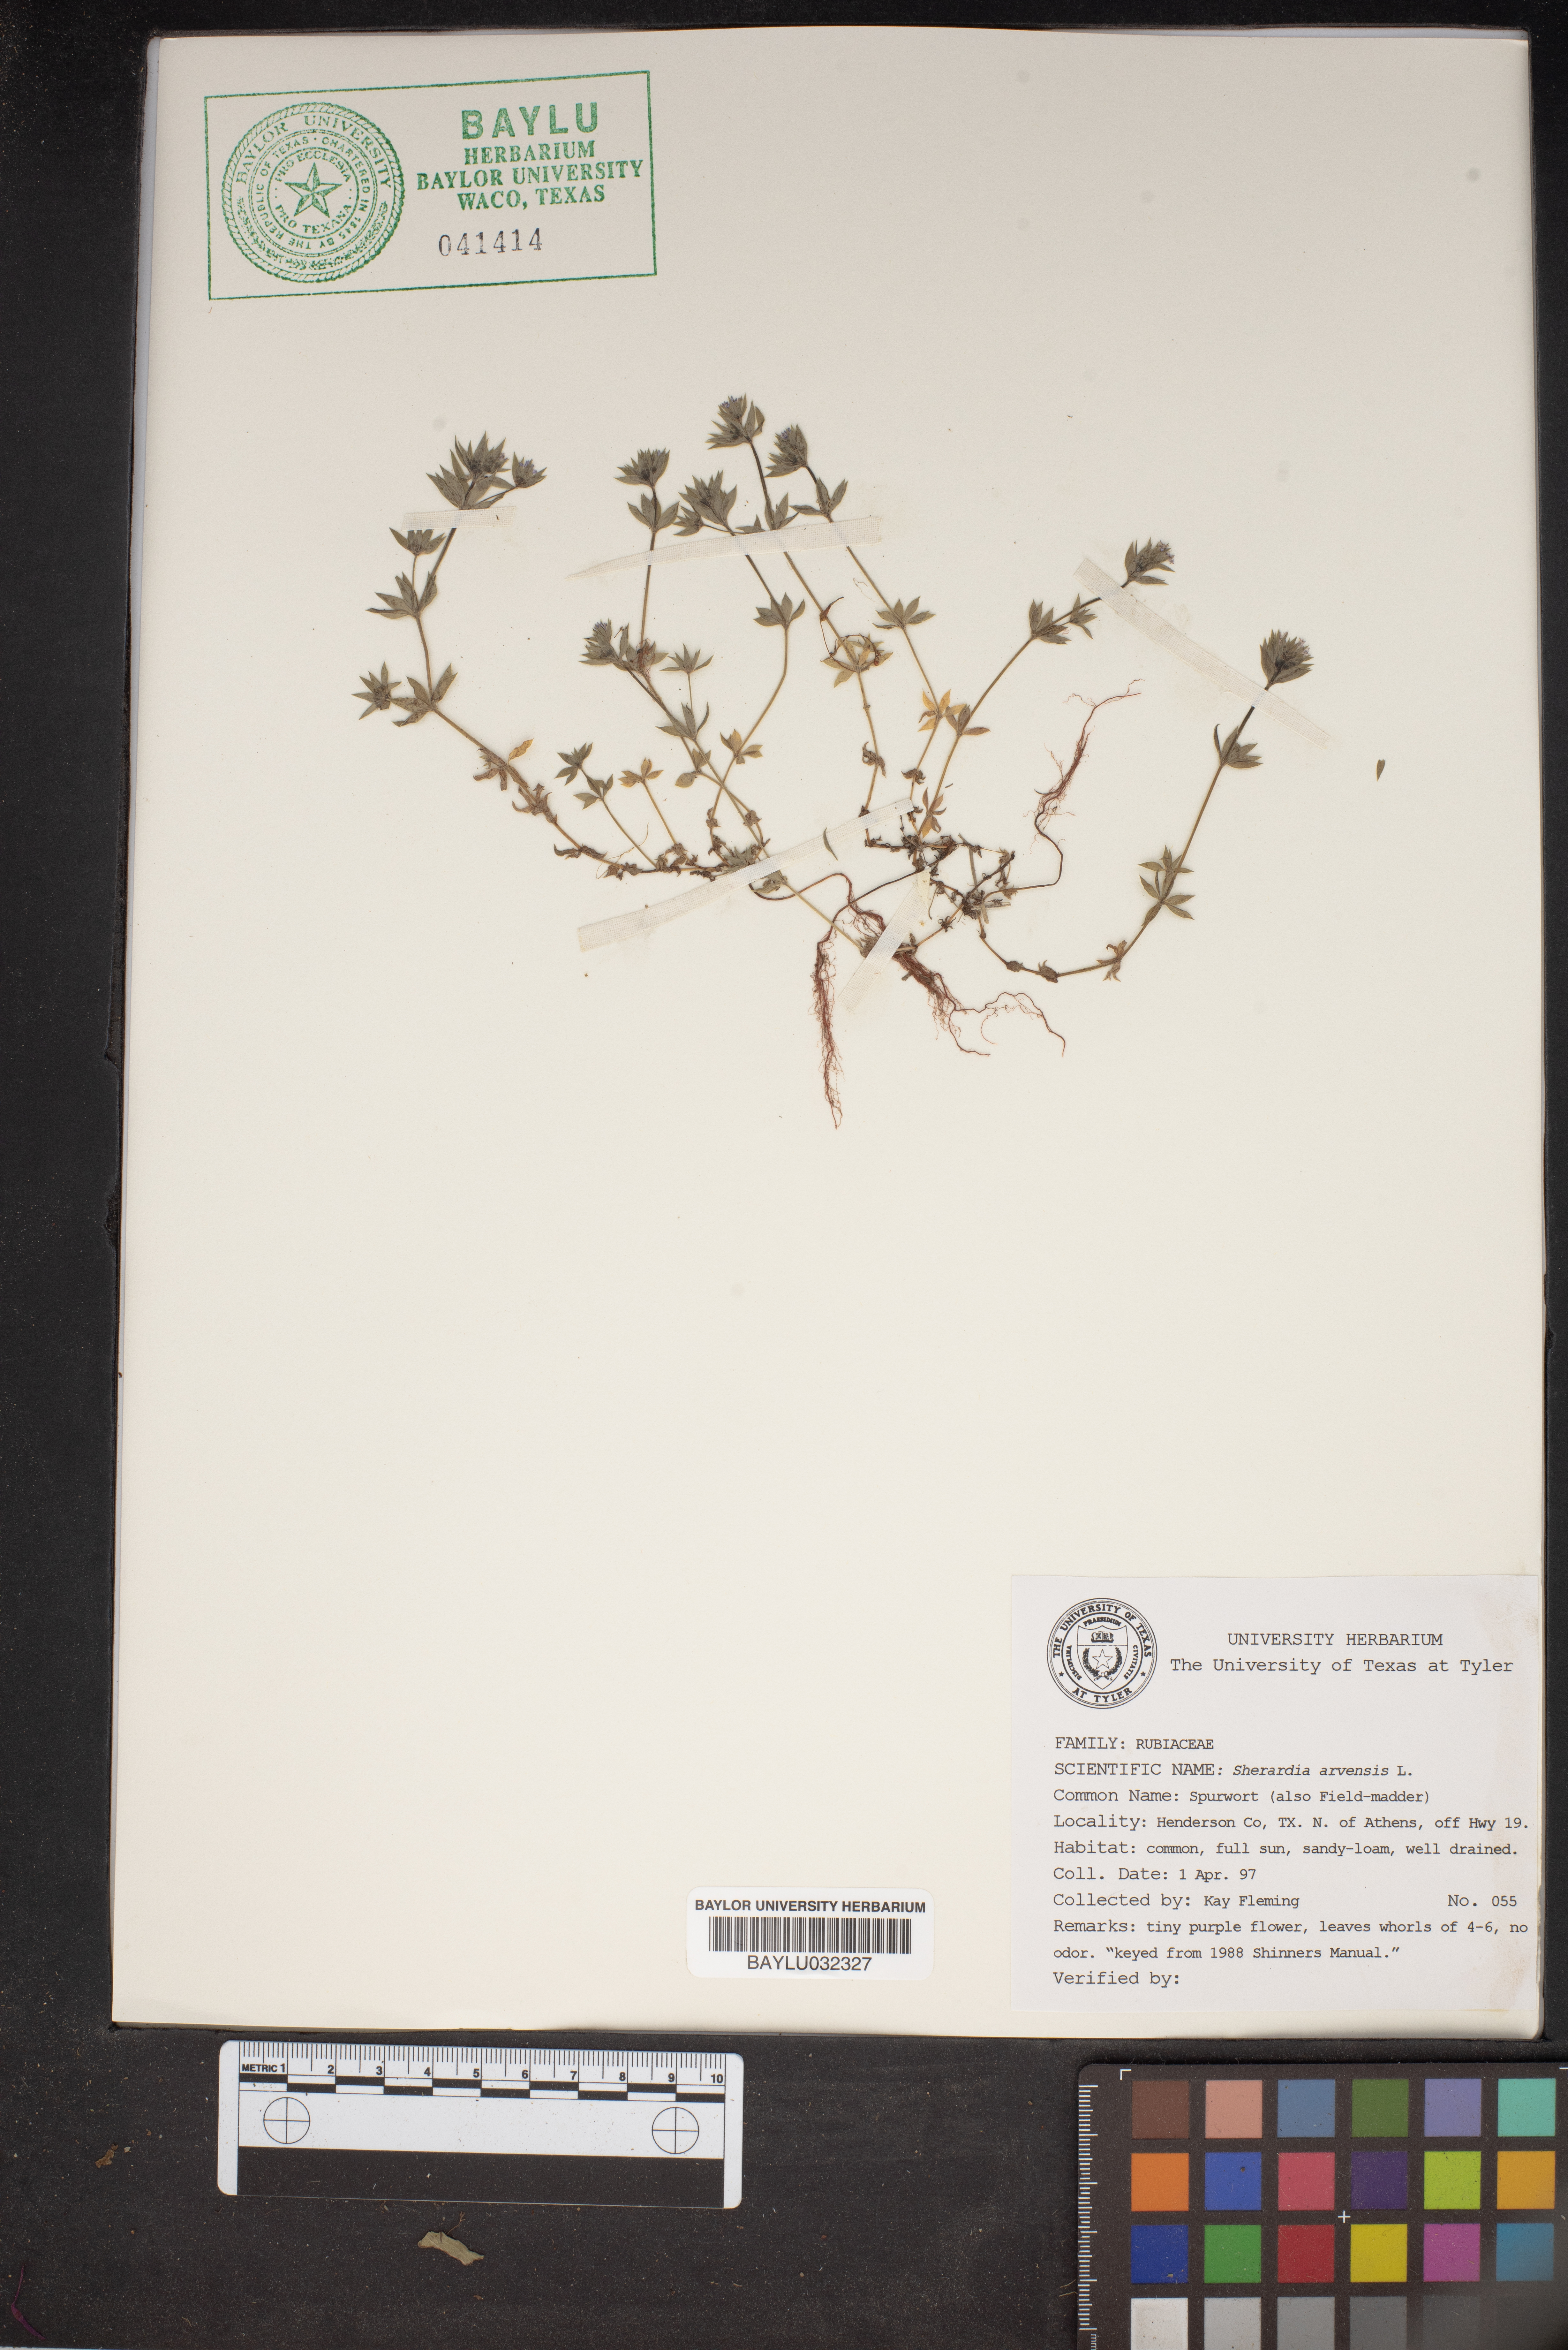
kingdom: Plantae
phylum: Tracheophyta
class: Magnoliopsida
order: Gentianales
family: Rubiaceae
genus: Sherardia
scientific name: Sherardia arvensis
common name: Field madder
